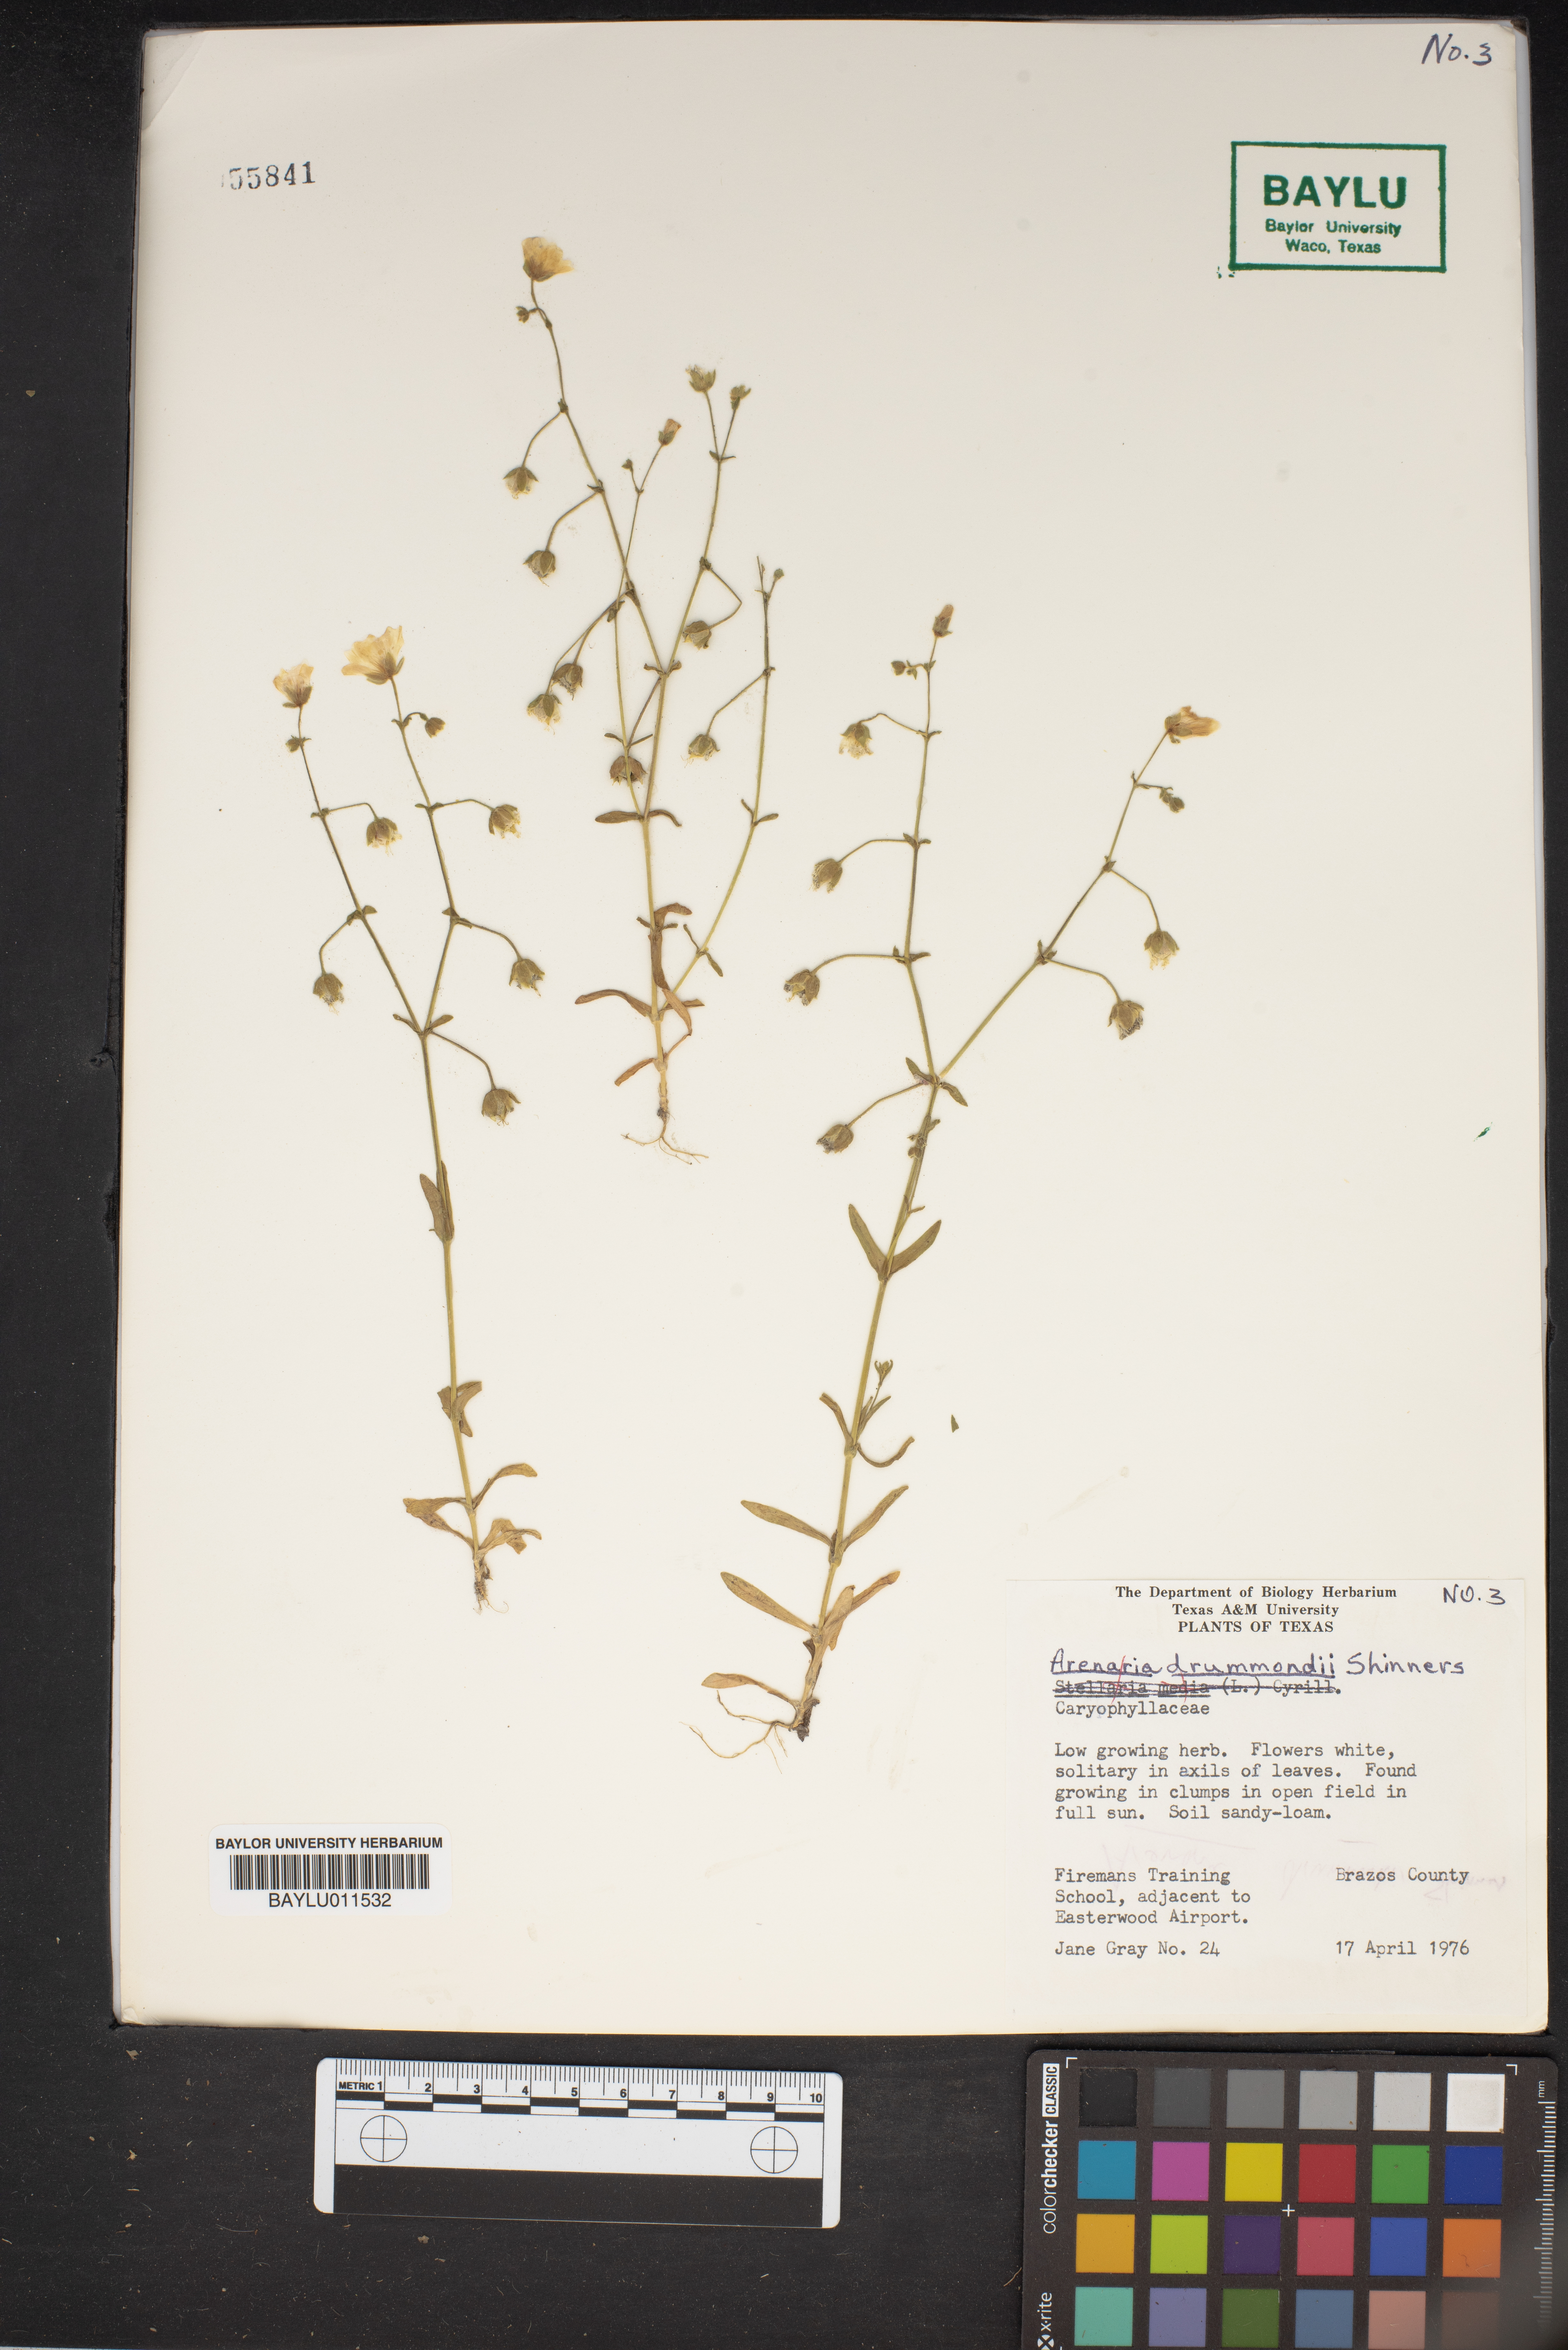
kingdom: Plantae
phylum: Tracheophyta
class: Magnoliopsida
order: Caryophyllales
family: Caryophyllaceae
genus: Geocarpon
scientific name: Geocarpon nuttallii
